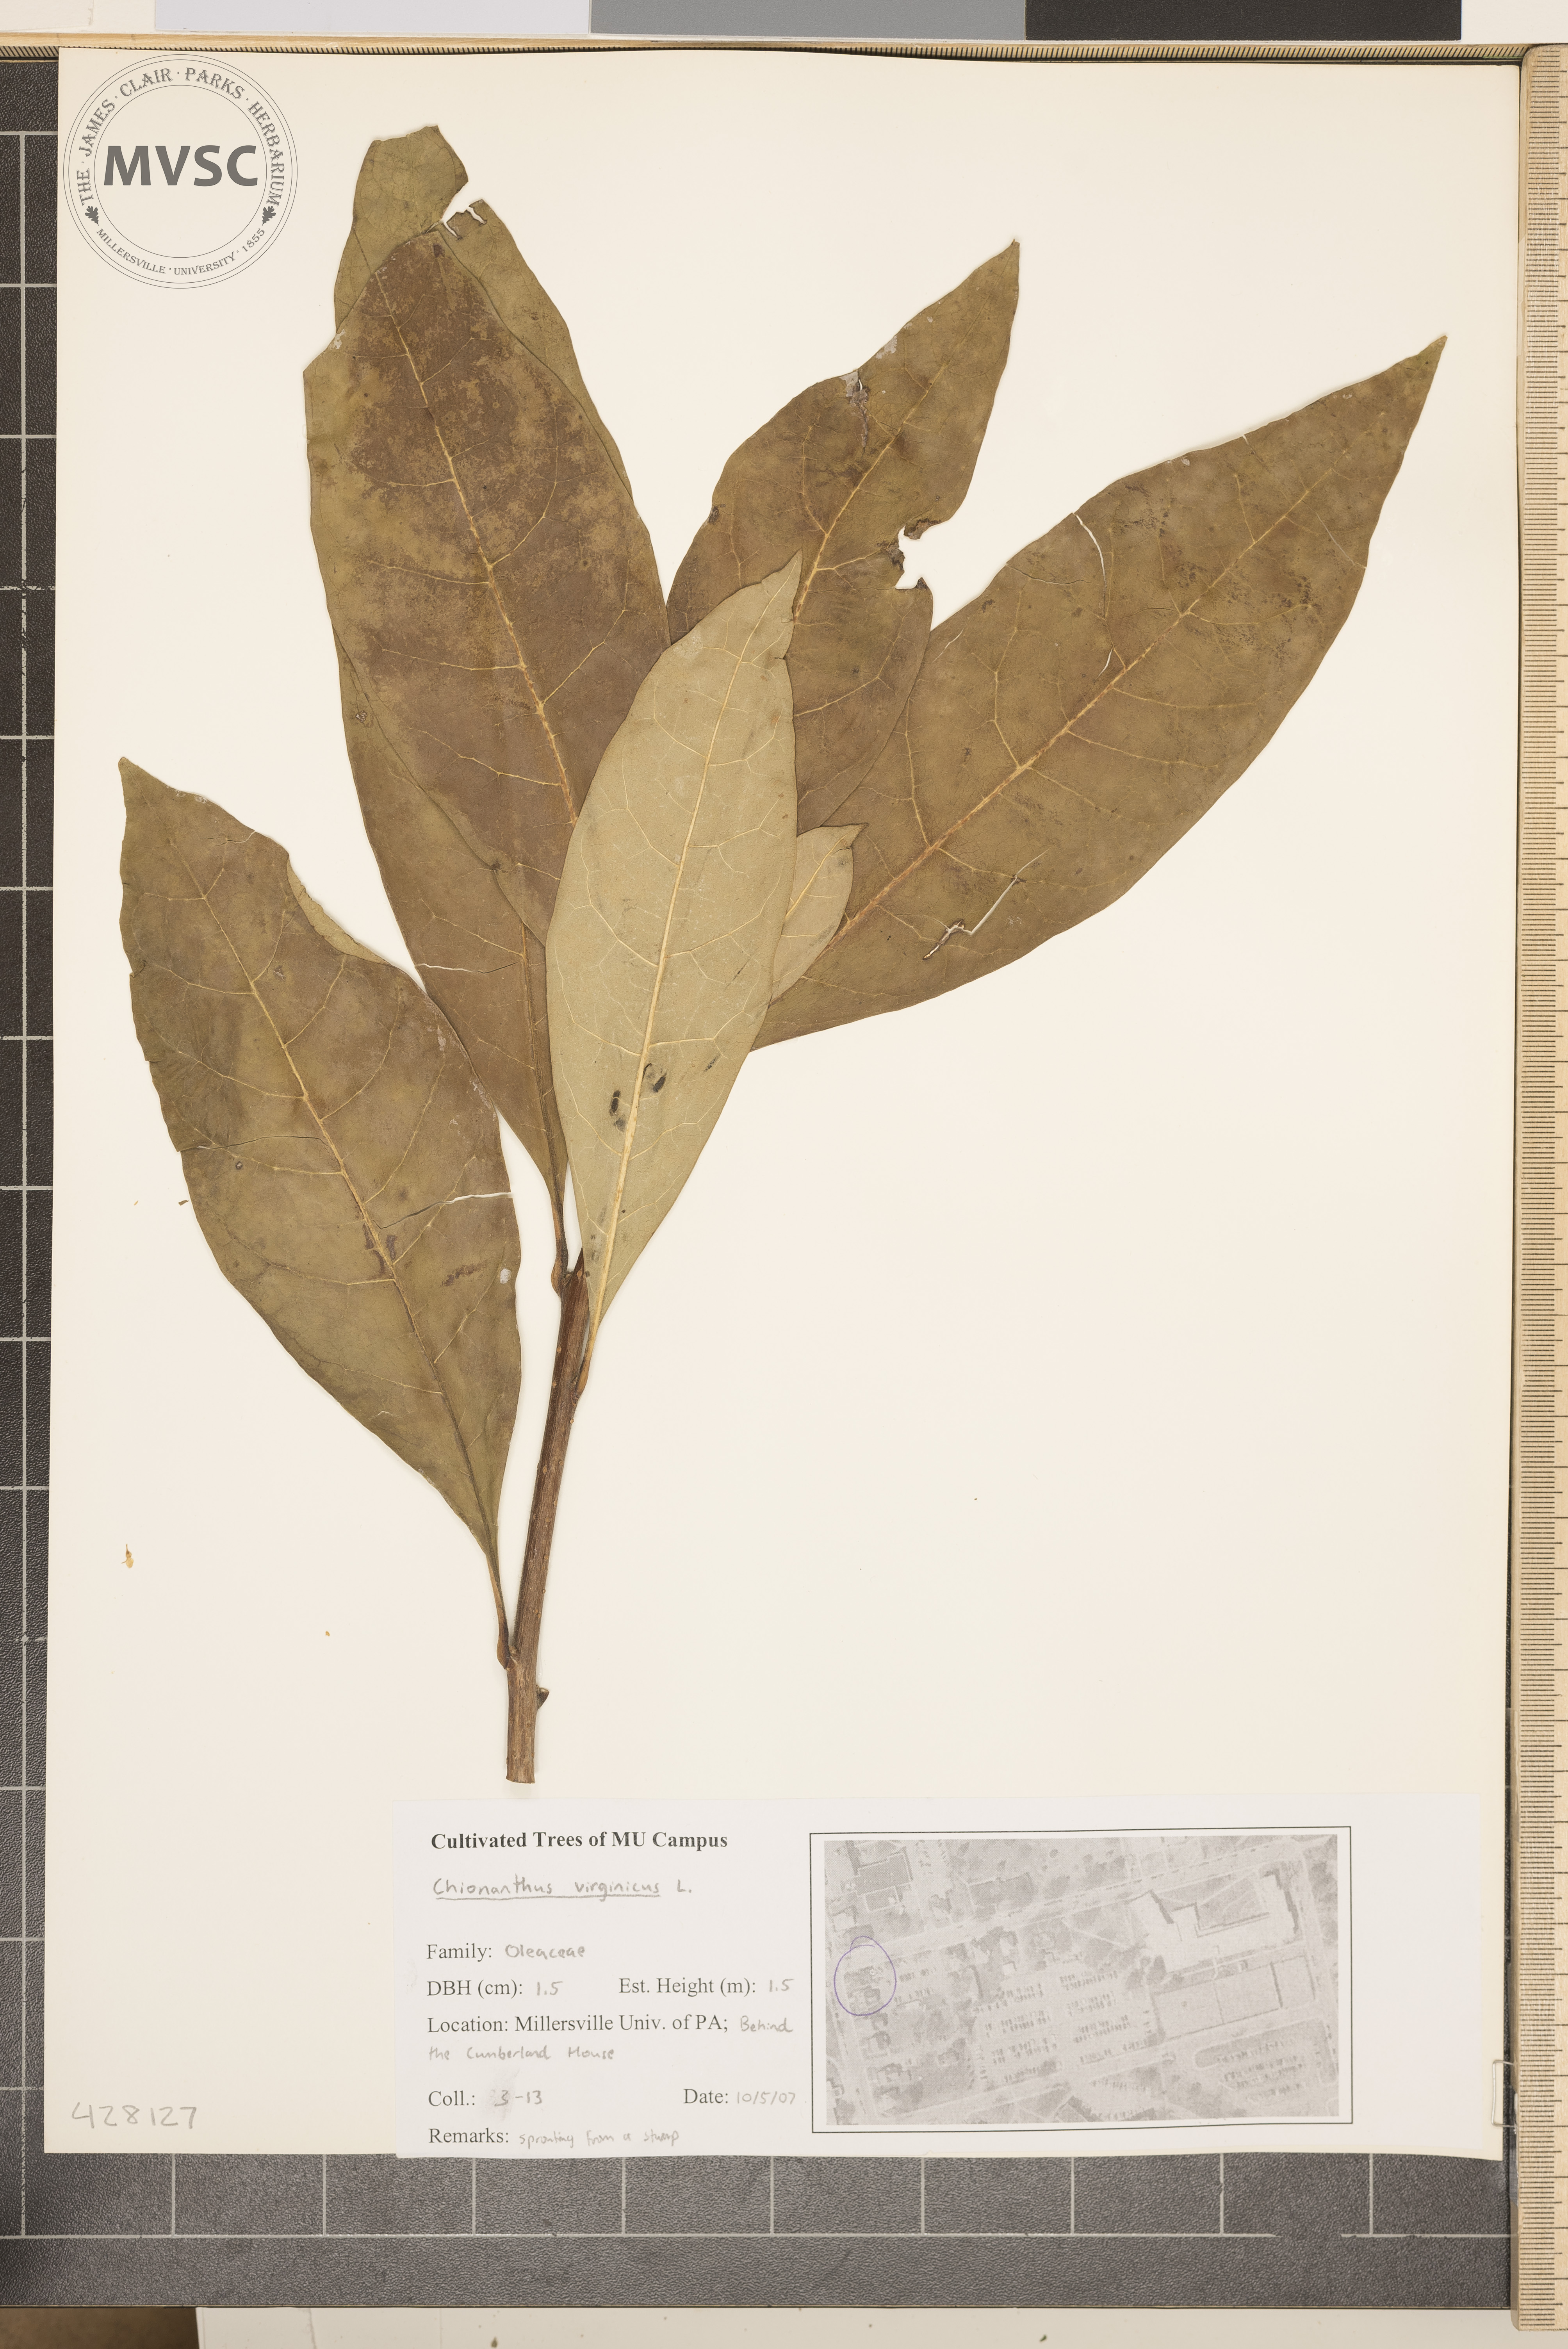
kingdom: Plantae
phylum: Tracheophyta
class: Magnoliopsida
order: Lamiales
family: Oleaceae
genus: Chionanthus
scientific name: Chionanthus virginicus
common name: Fringetree
